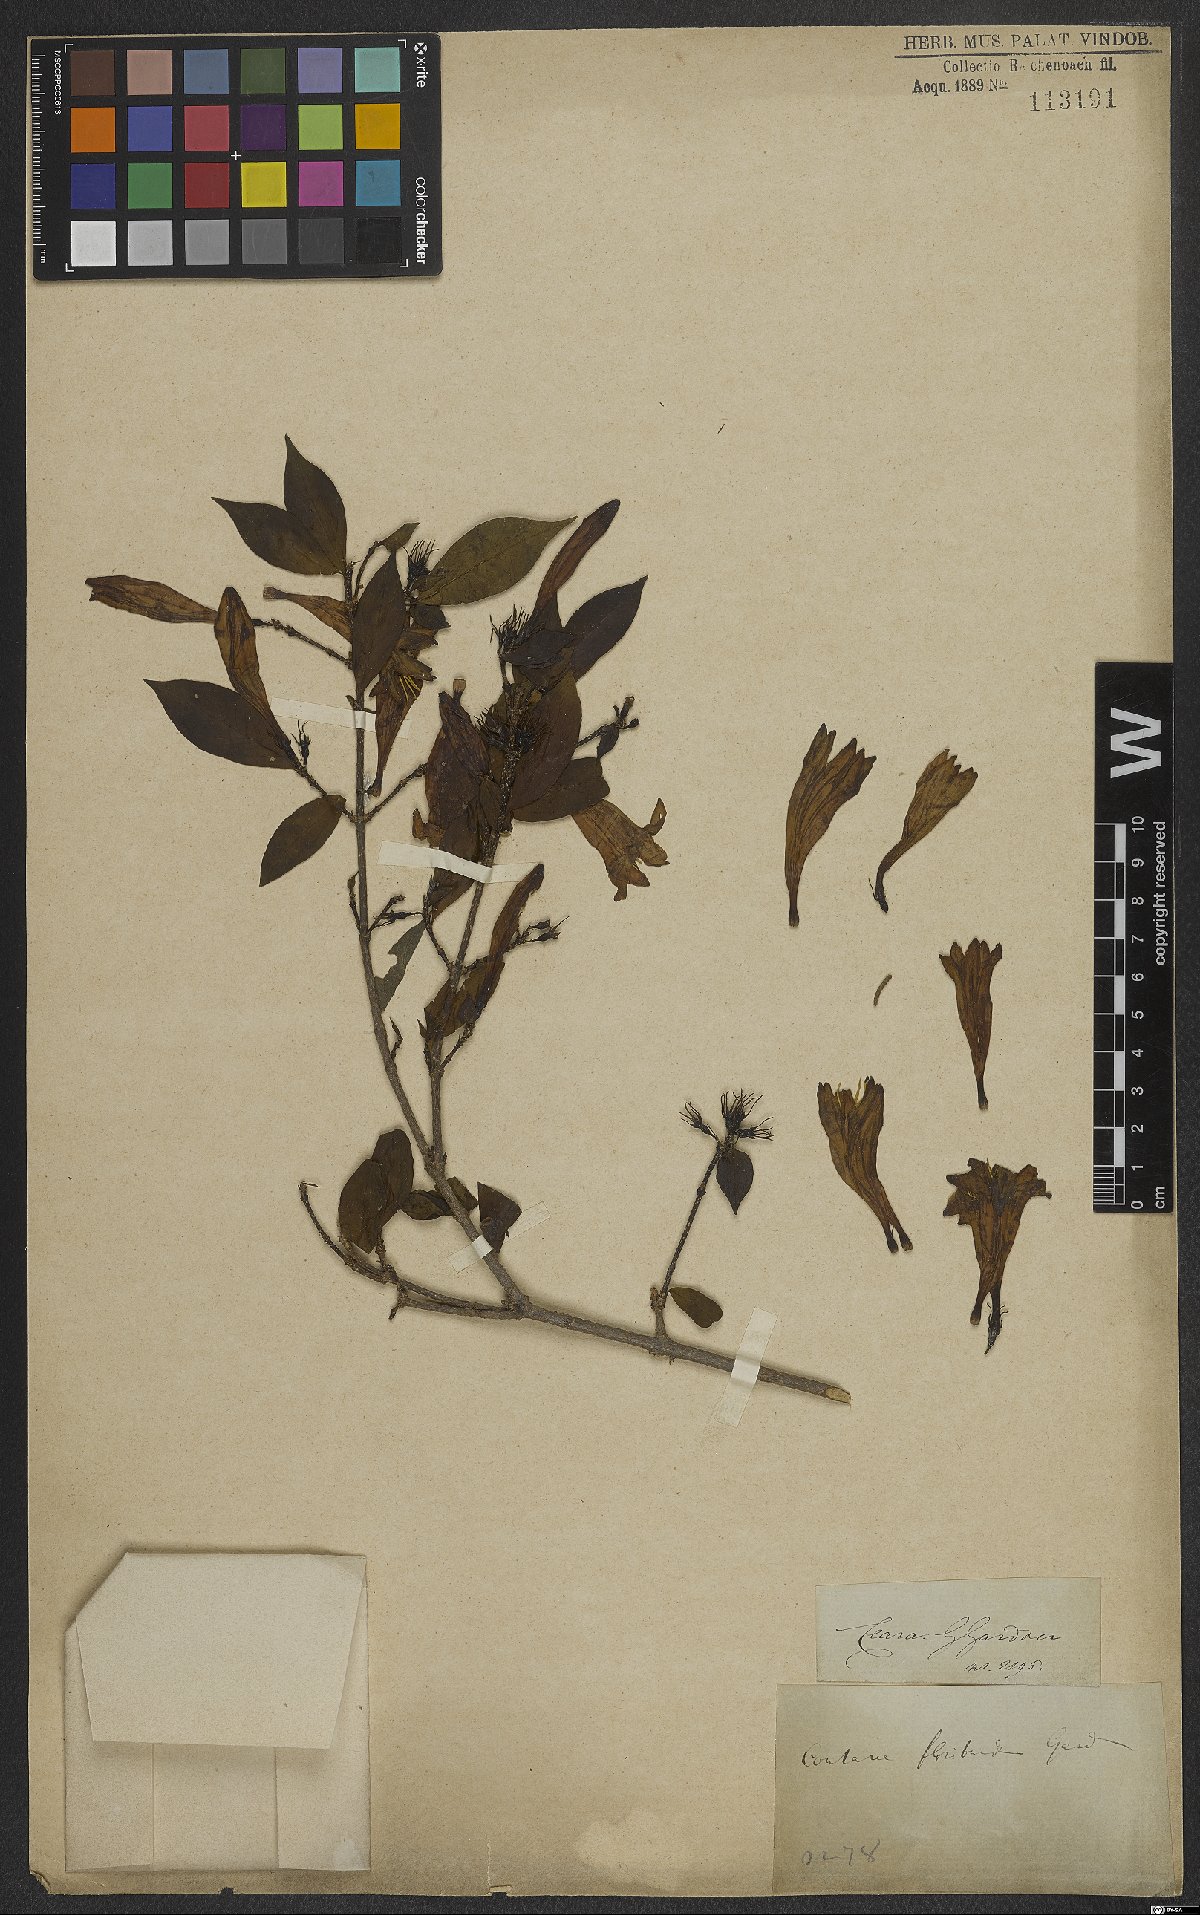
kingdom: Plantae
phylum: Tracheophyta
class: Magnoliopsida
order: Gentianales
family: Rubiaceae
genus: Coutarea
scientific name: Coutarea
